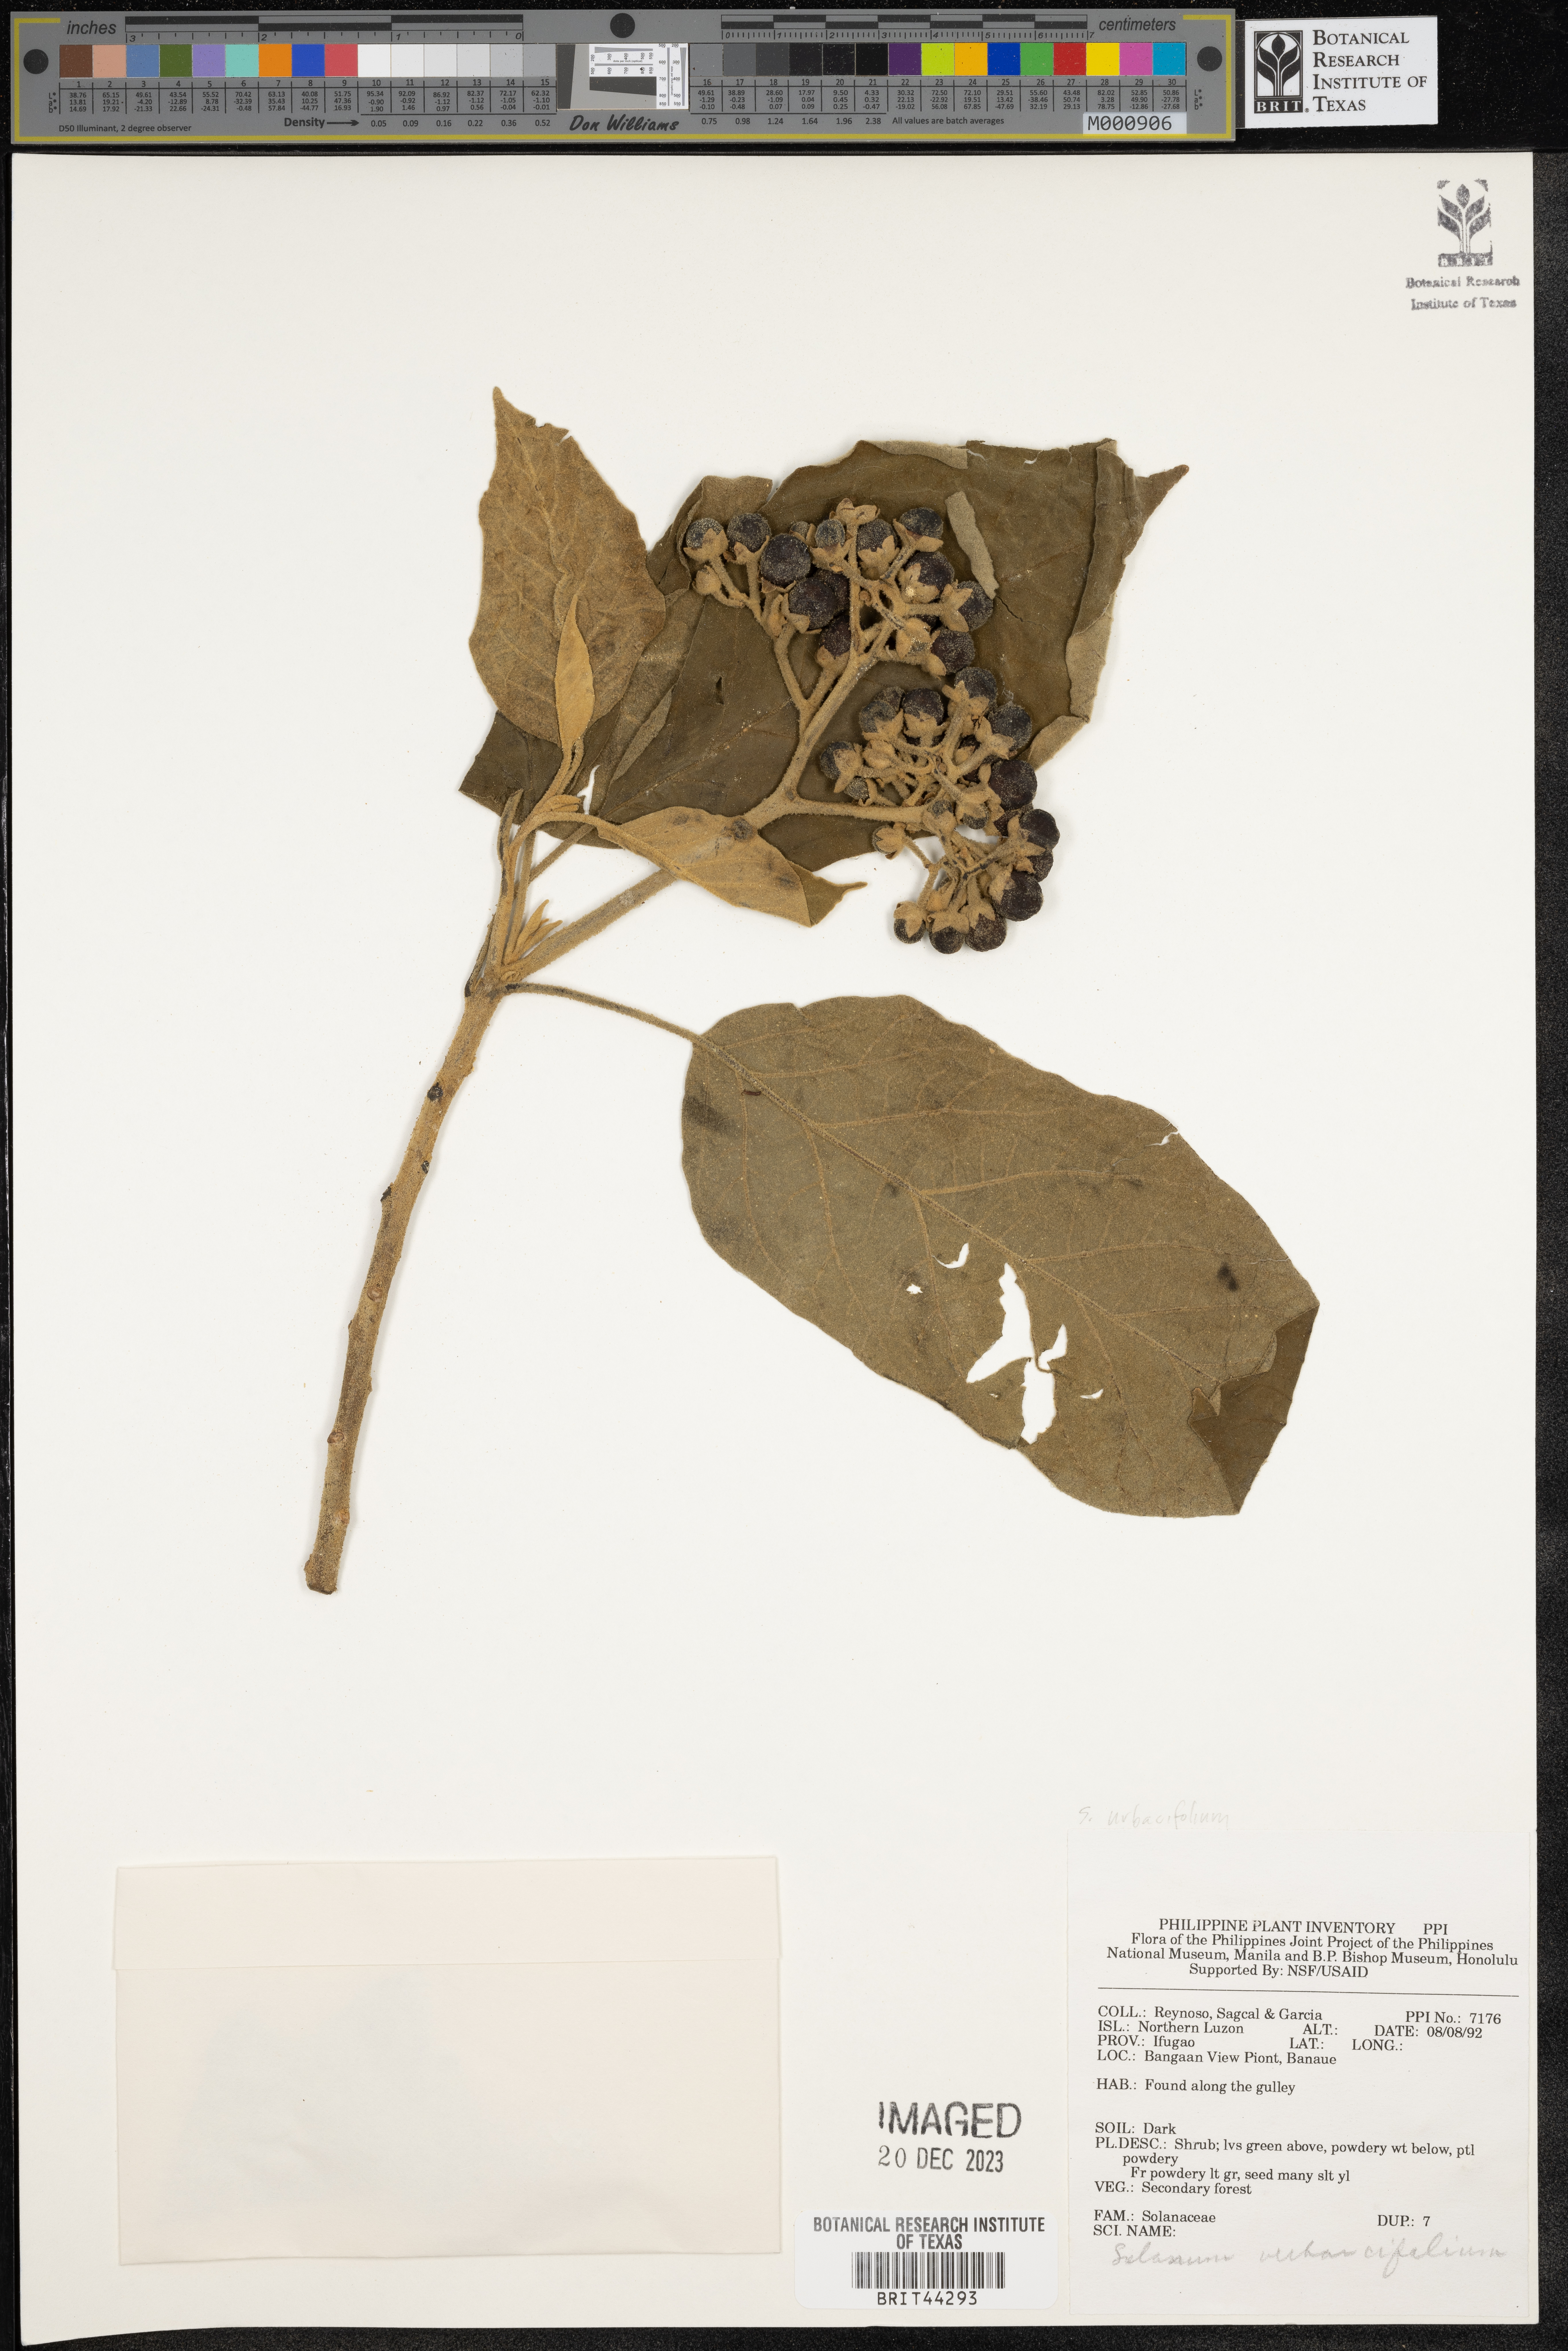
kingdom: Plantae
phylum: Tracheophyta
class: Magnoliopsida
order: Solanales
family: Solanaceae
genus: Solanum
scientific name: Solanum
